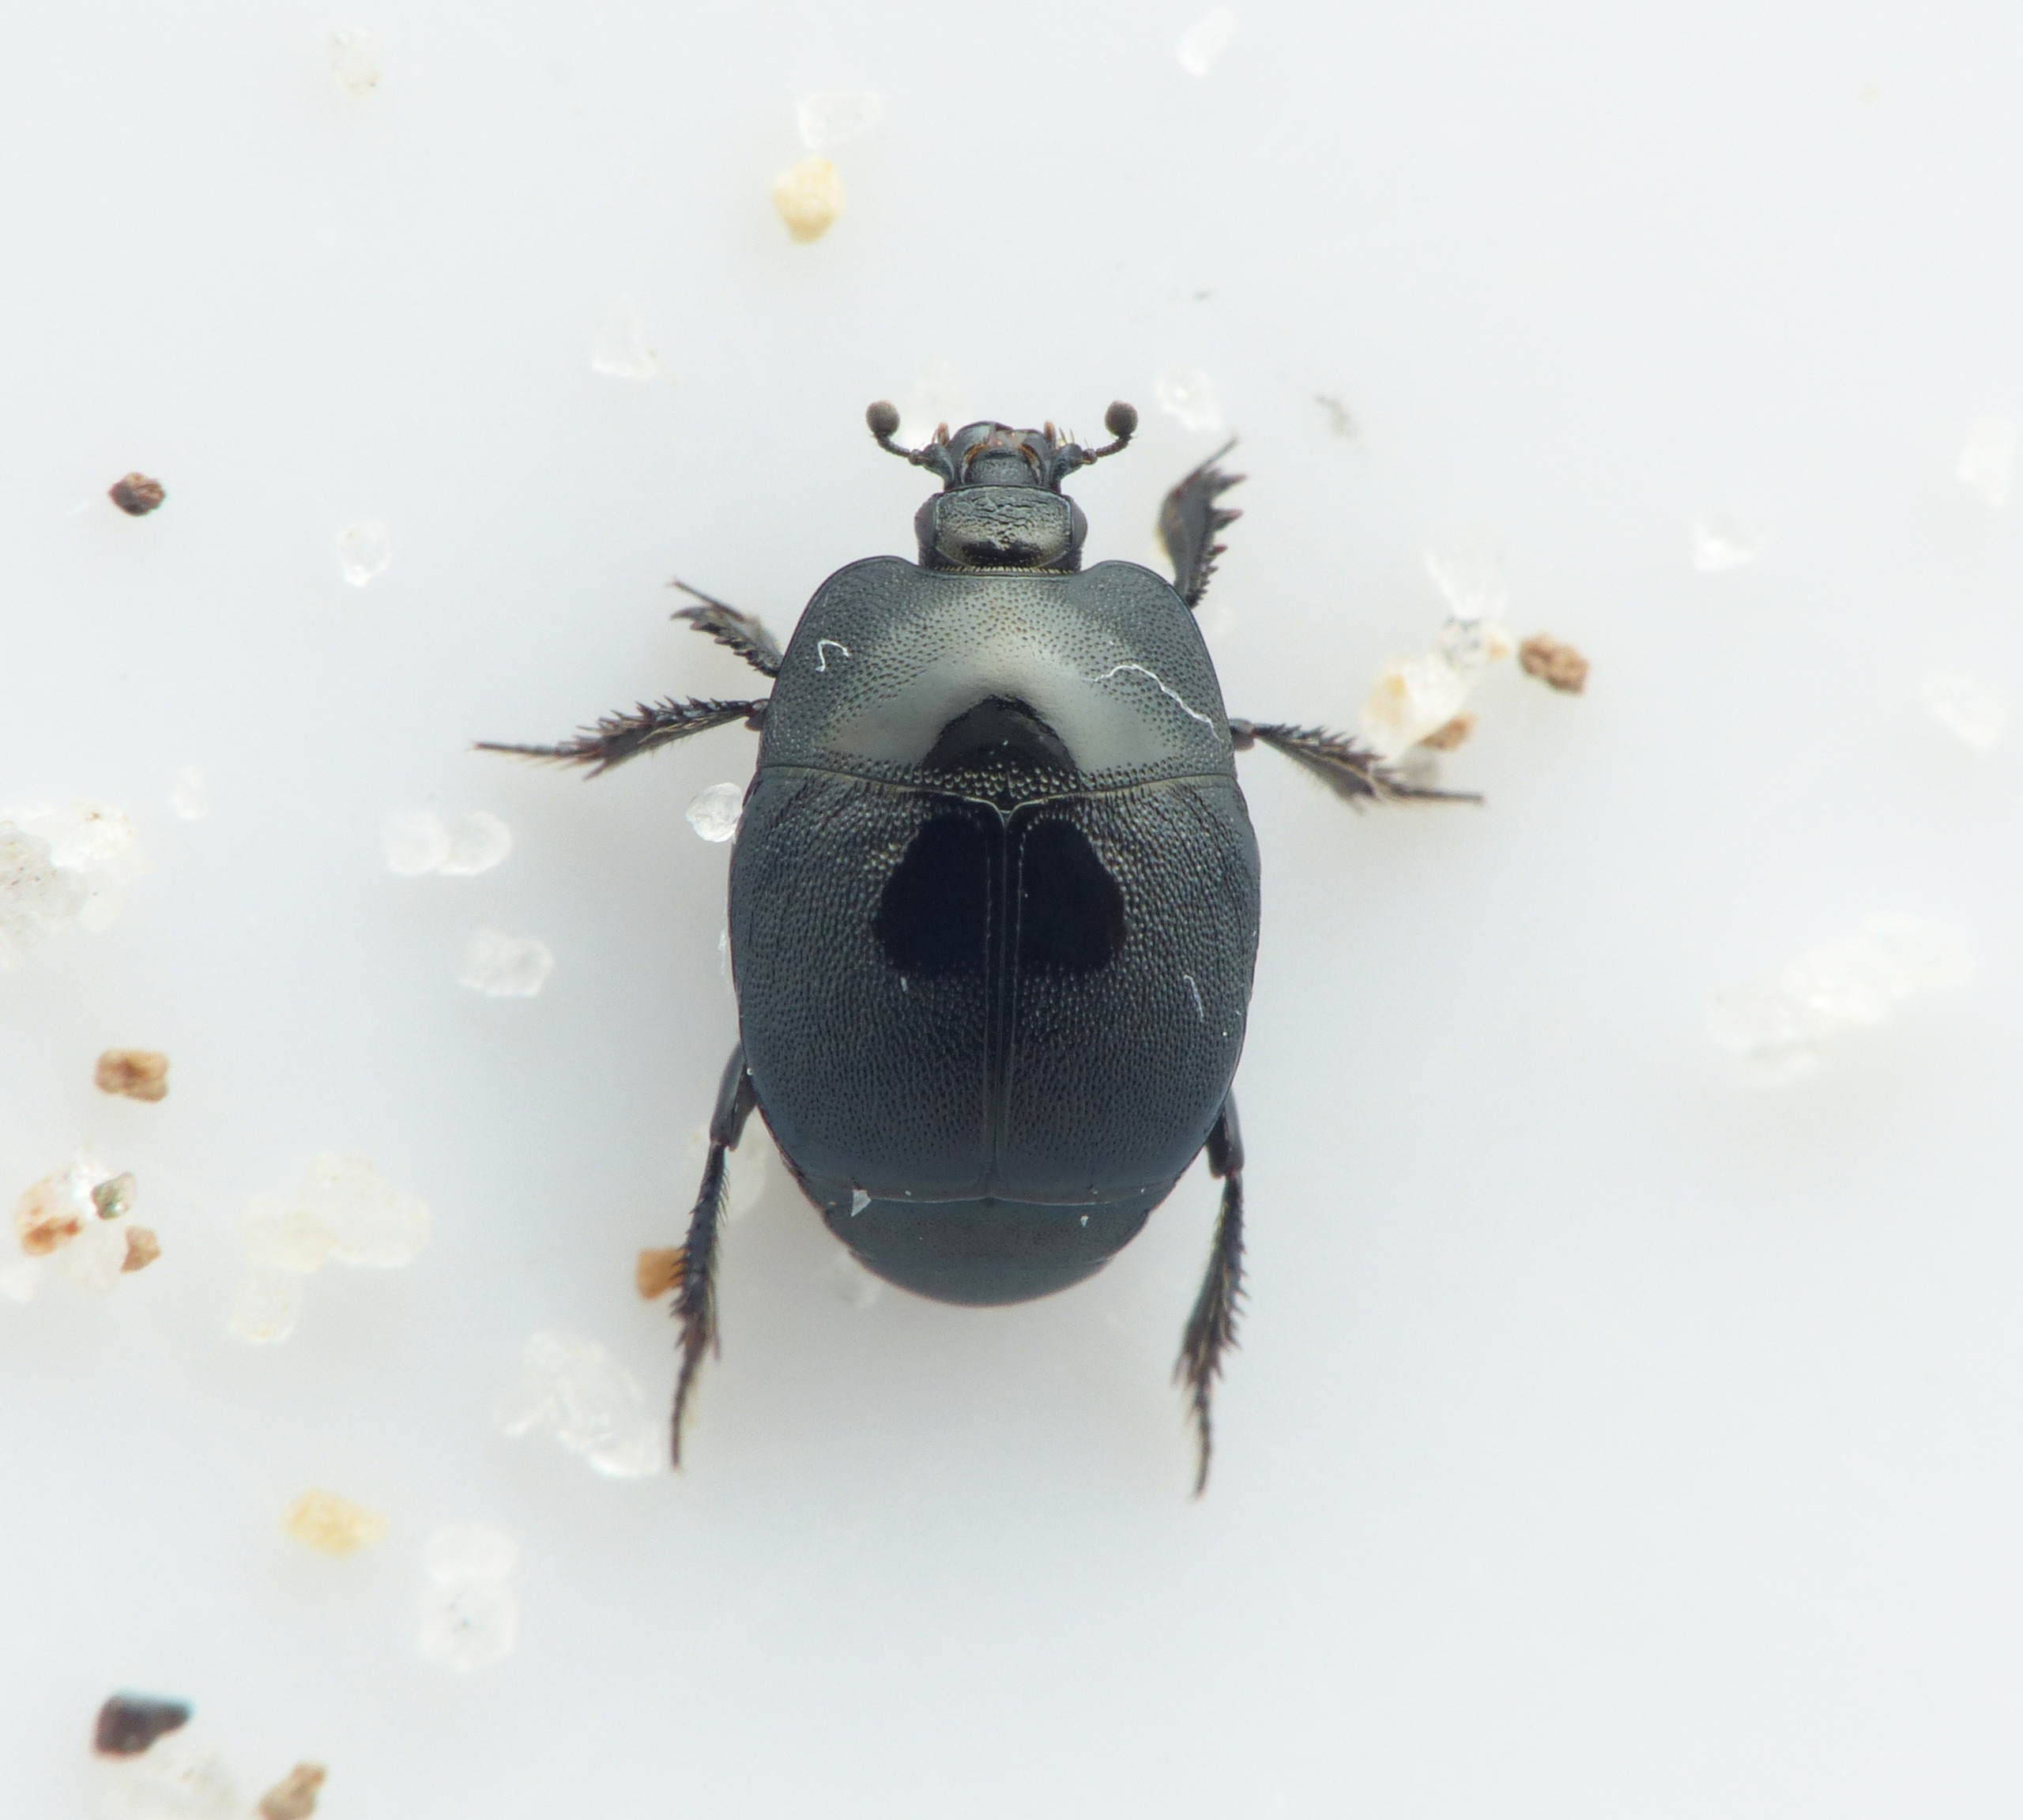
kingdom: Animalia
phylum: Arthropoda
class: Insecta
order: Coleoptera
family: Histeridae
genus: Hypocaccus
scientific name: Hypocaccus rugiceps
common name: Blålig klitstumpbille
